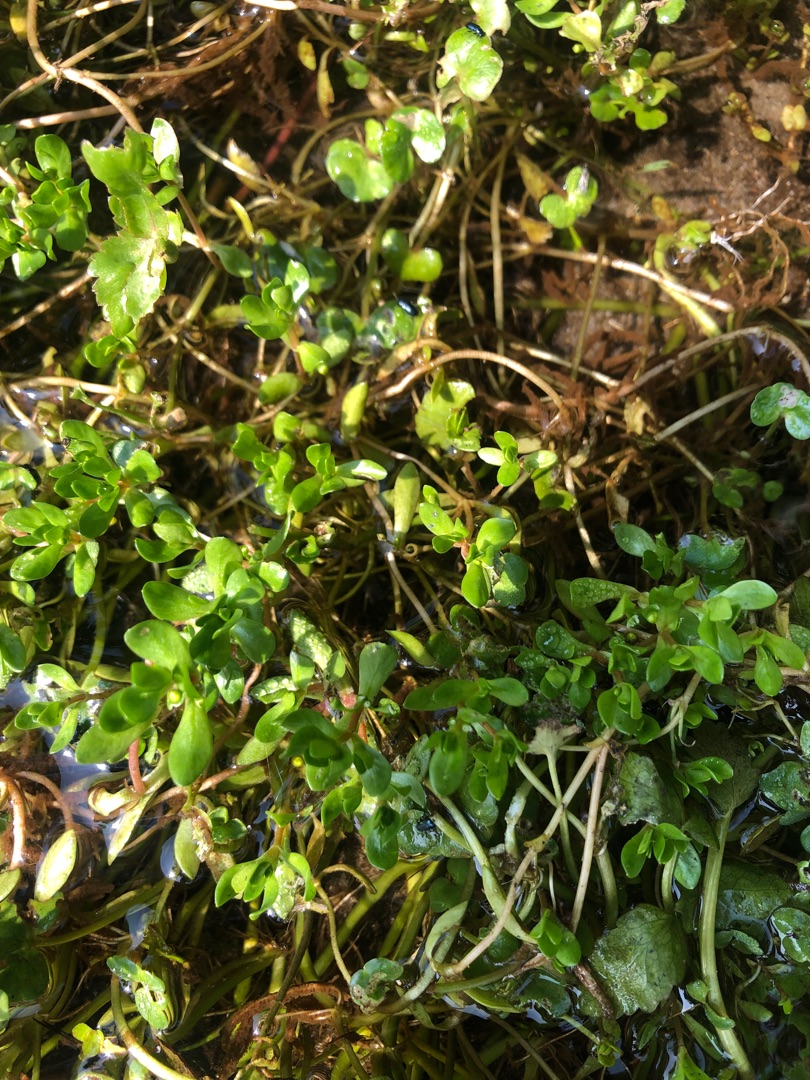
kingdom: Plantae
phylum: Tracheophyta
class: Magnoliopsida
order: Caryophyllales
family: Montiaceae
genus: Montia
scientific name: Montia fontana
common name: Stor vandarve
